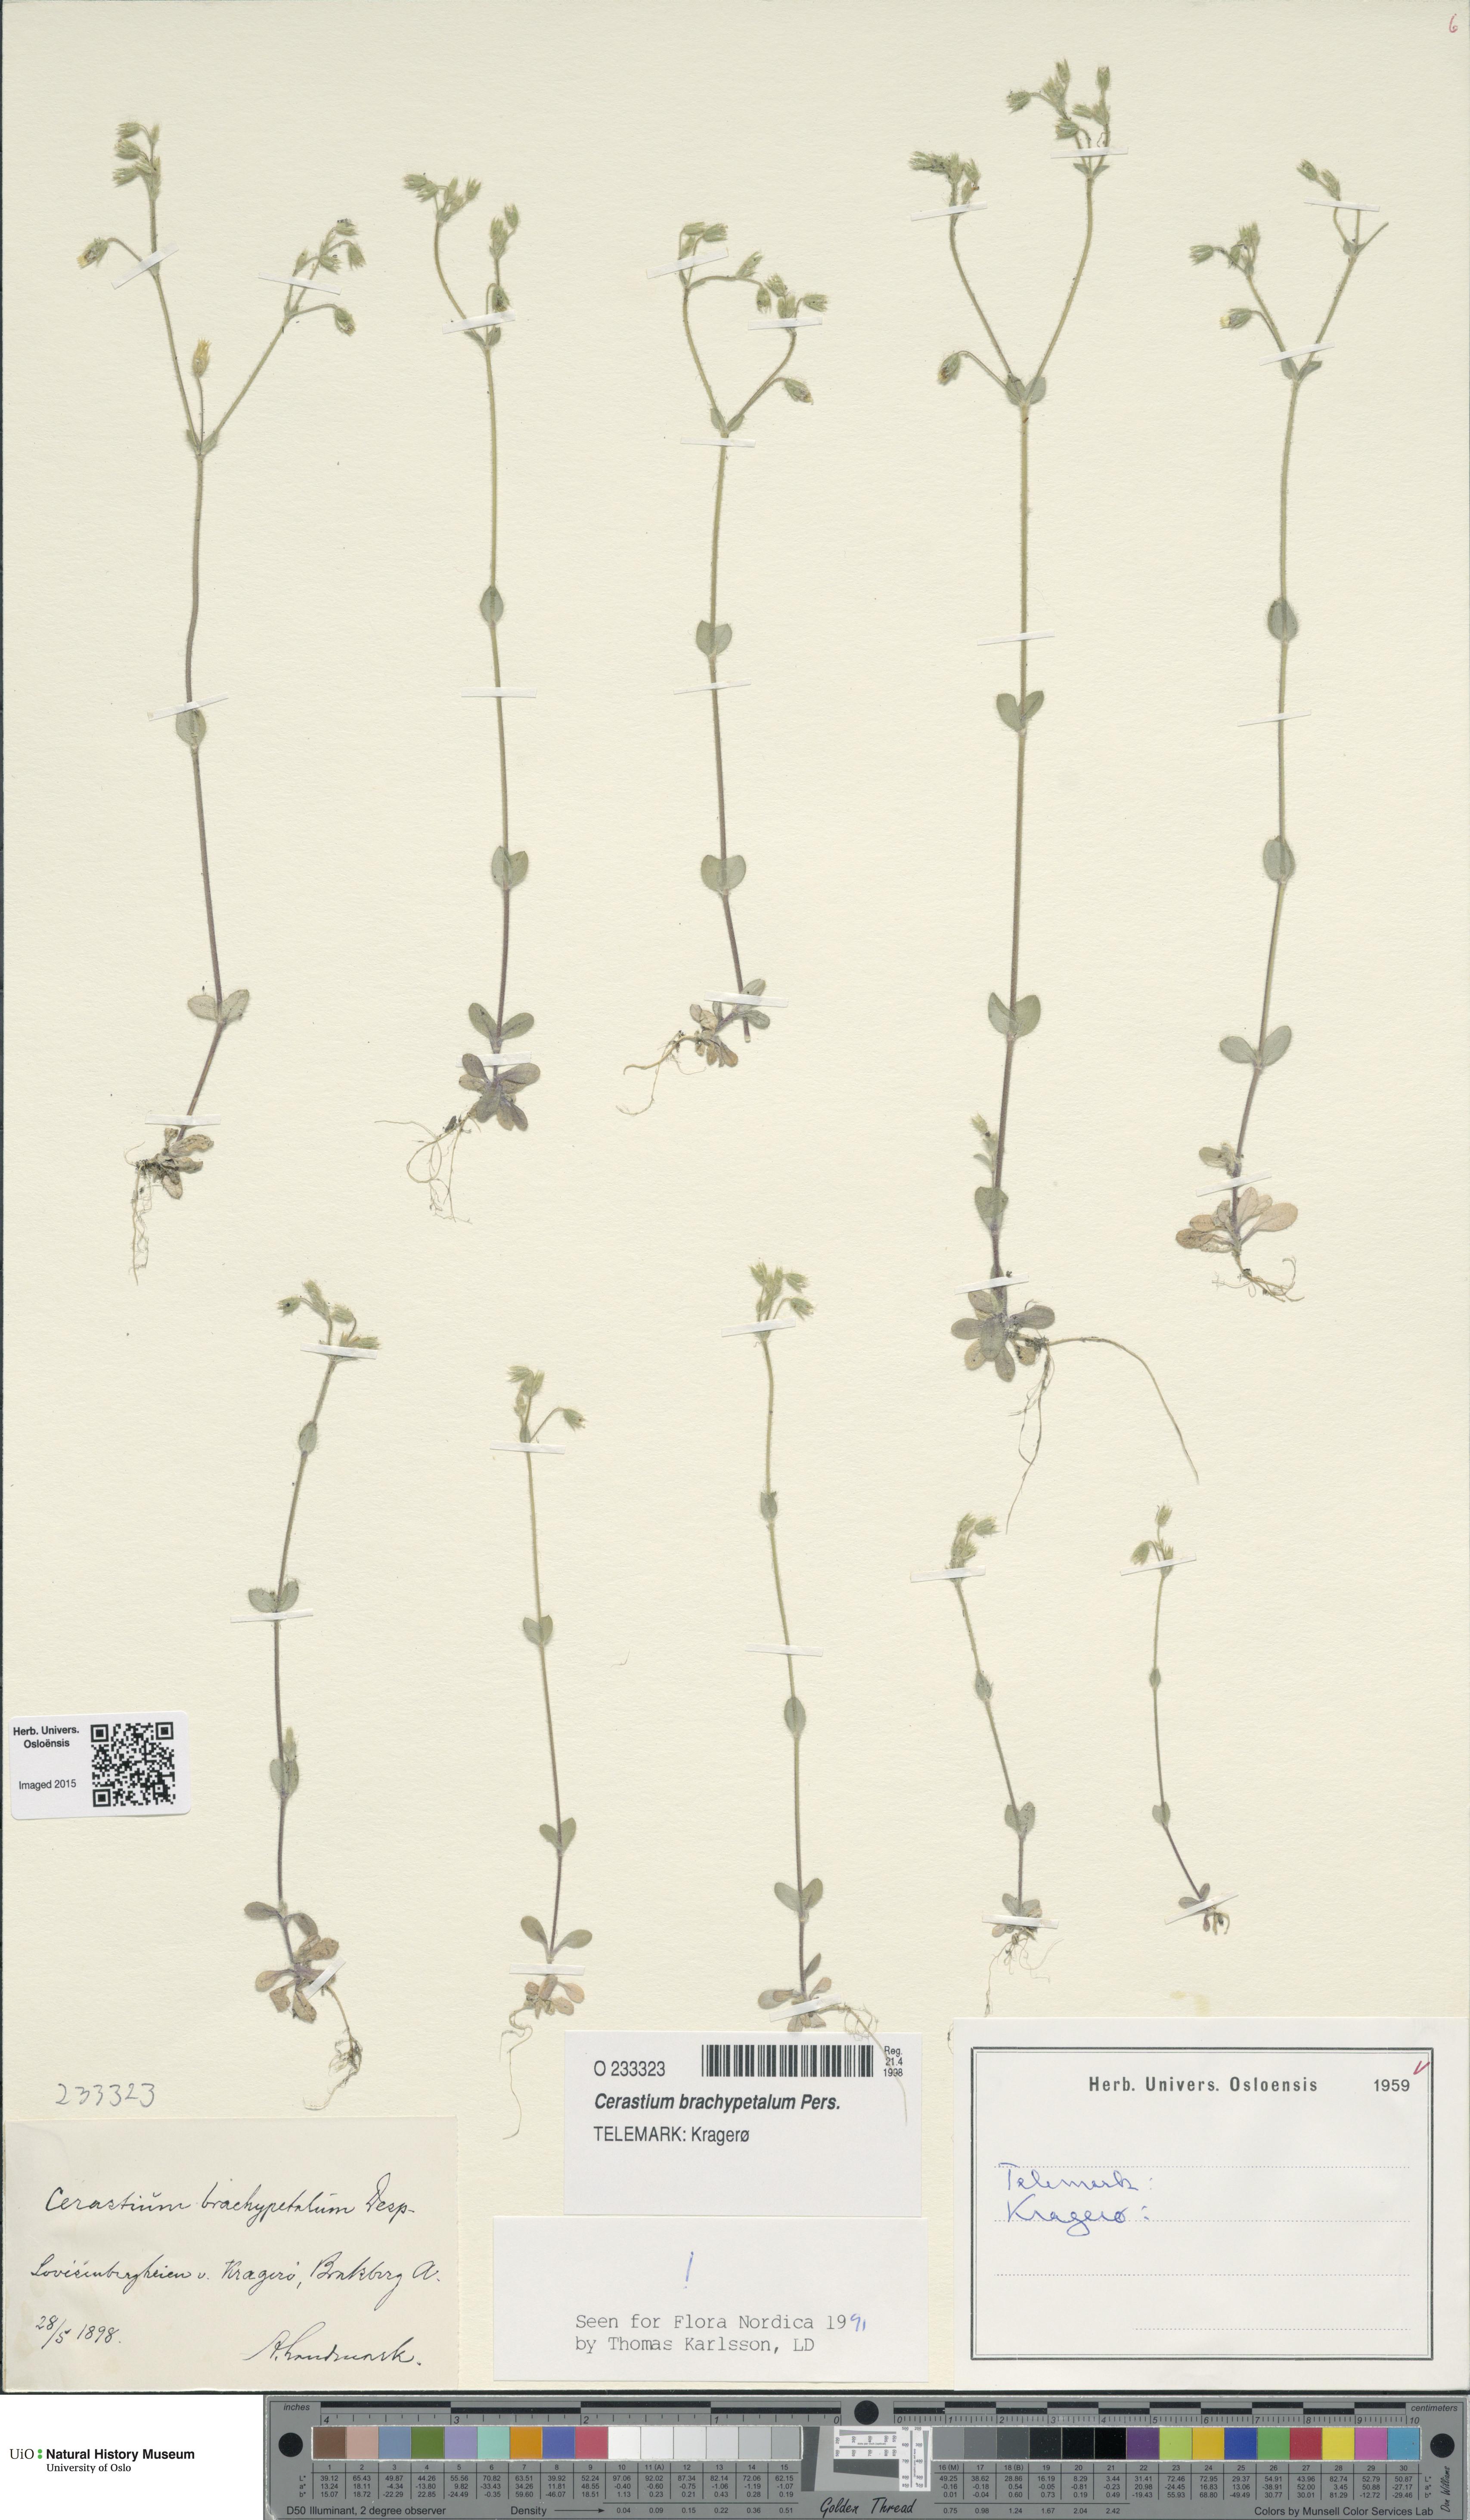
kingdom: Plantae
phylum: Tracheophyta
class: Magnoliopsida
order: Caryophyllales
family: Caryophyllaceae
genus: Cerastium
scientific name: Cerastium brachypetalum
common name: Grey mouse-ear
